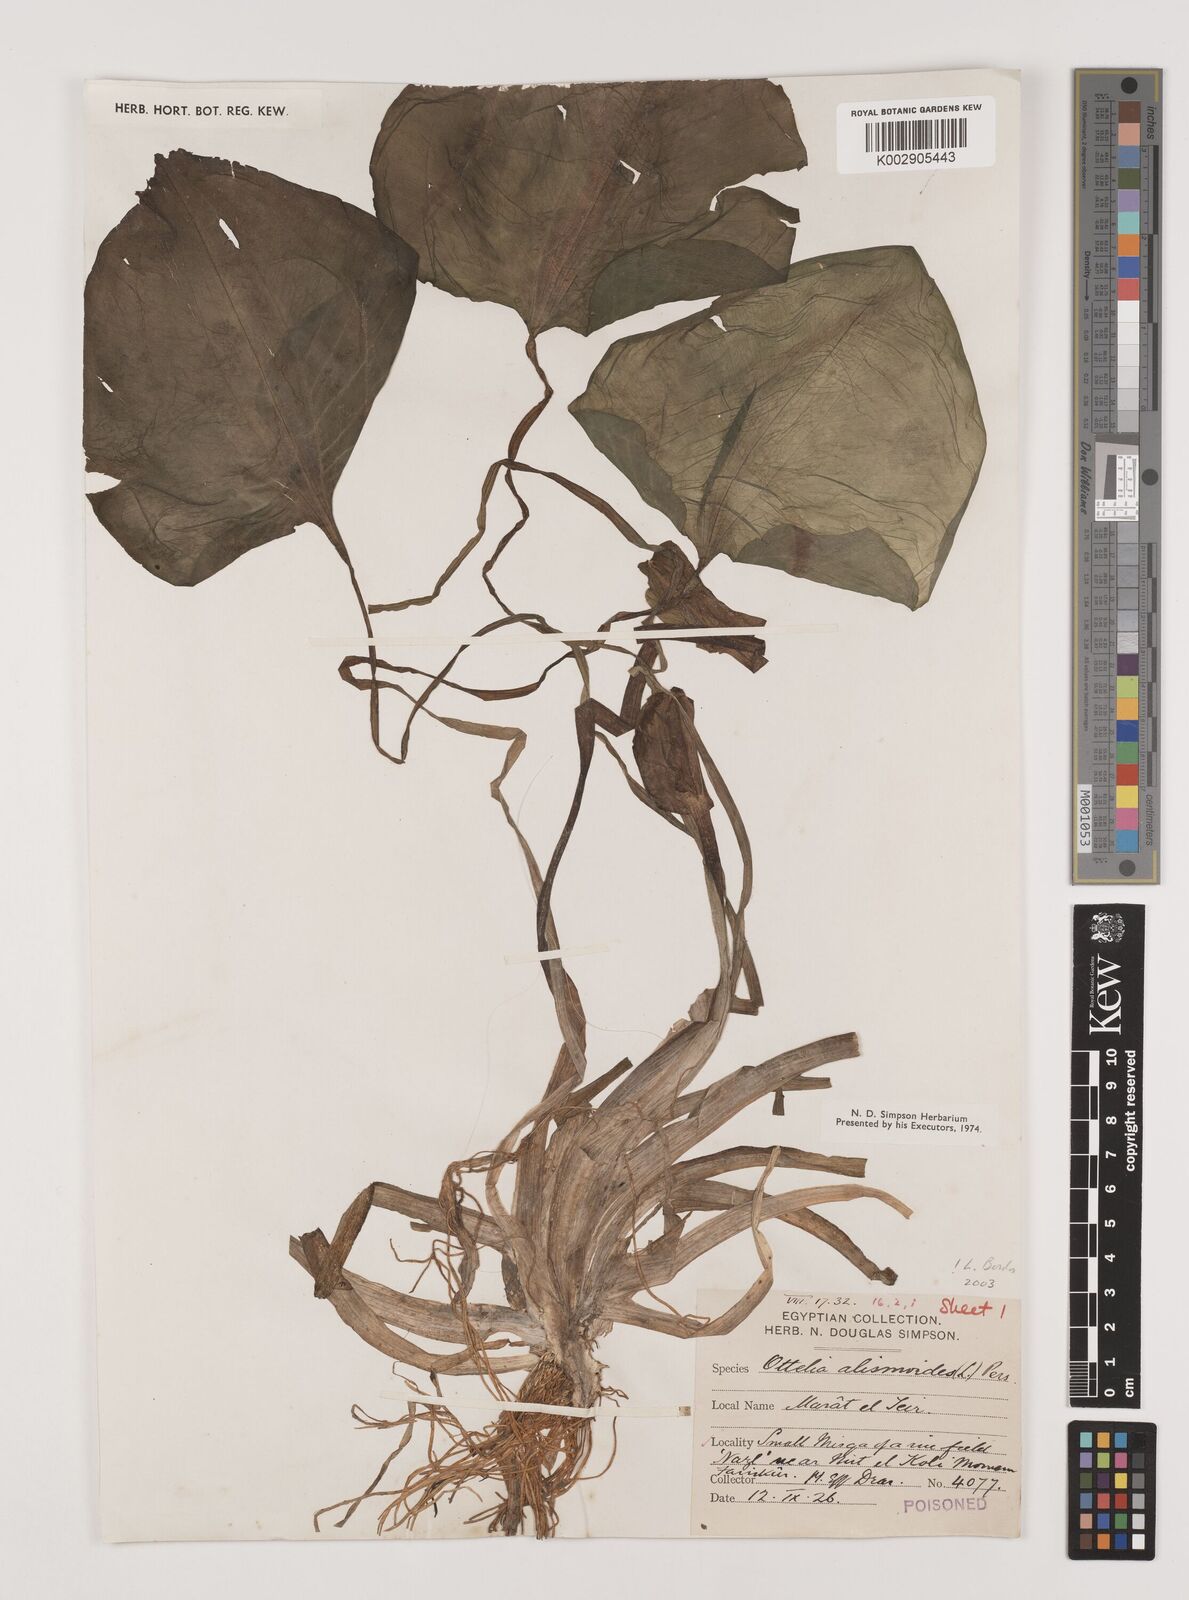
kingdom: Plantae
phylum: Tracheophyta
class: Liliopsida
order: Alismatales
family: Hydrocharitaceae
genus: Ottelia
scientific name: Ottelia alismoides
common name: Duck-lettuce
